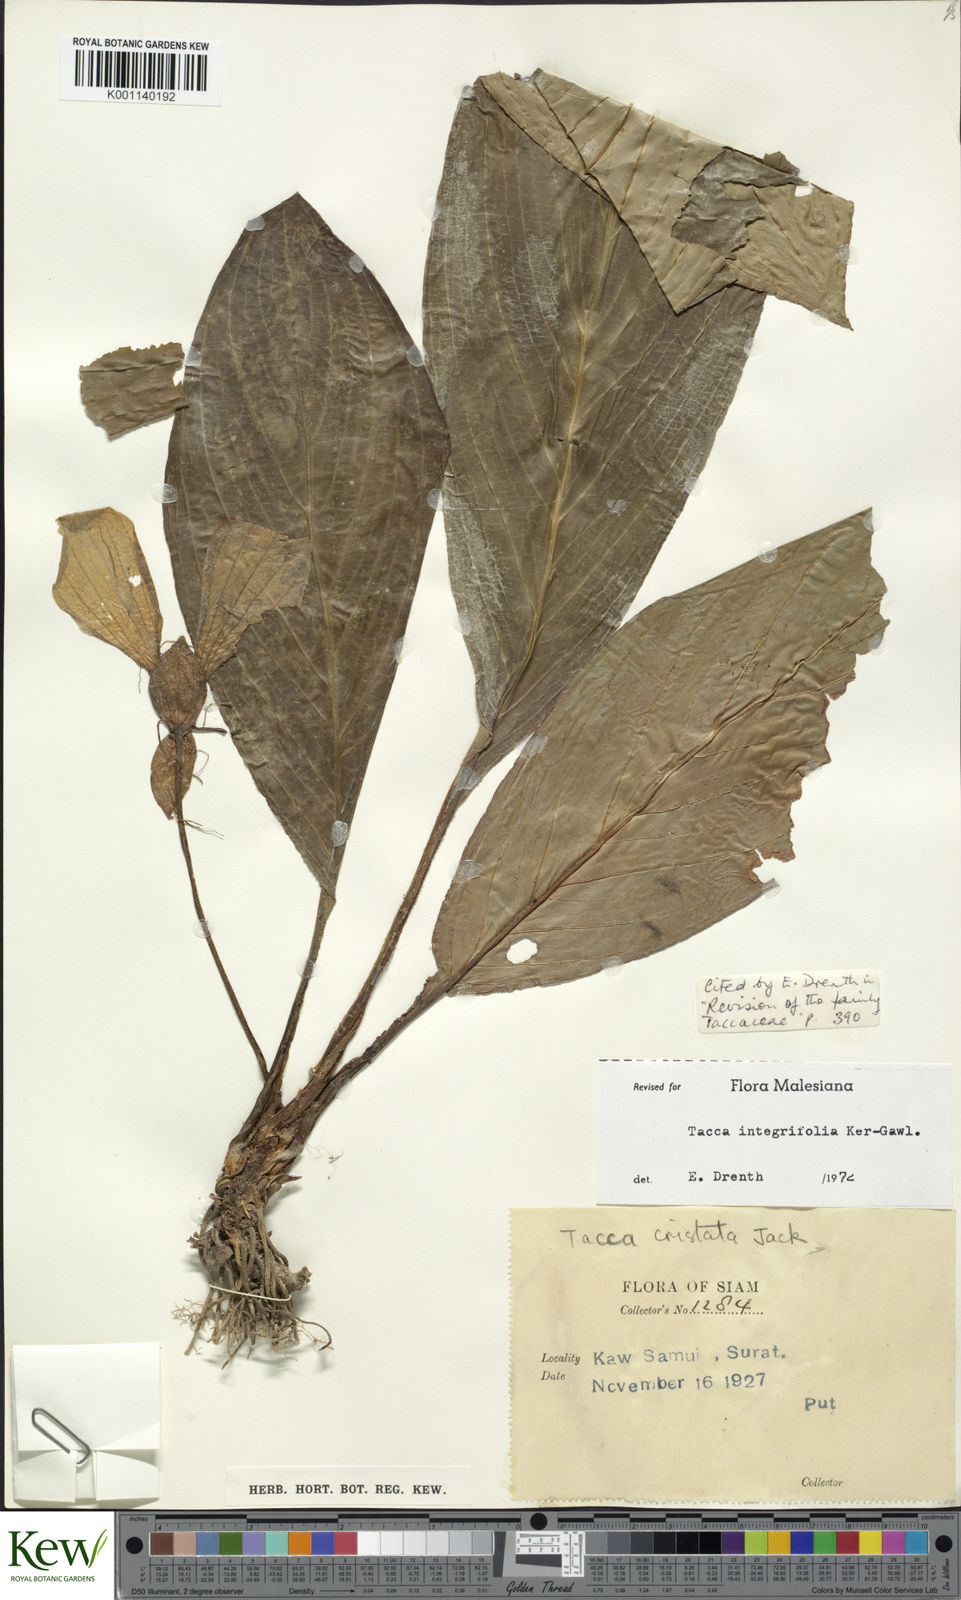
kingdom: Plantae
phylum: Tracheophyta
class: Liliopsida
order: Dioscoreales
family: Dioscoreaceae
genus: Tacca
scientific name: Tacca integrifolia
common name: Batplant
